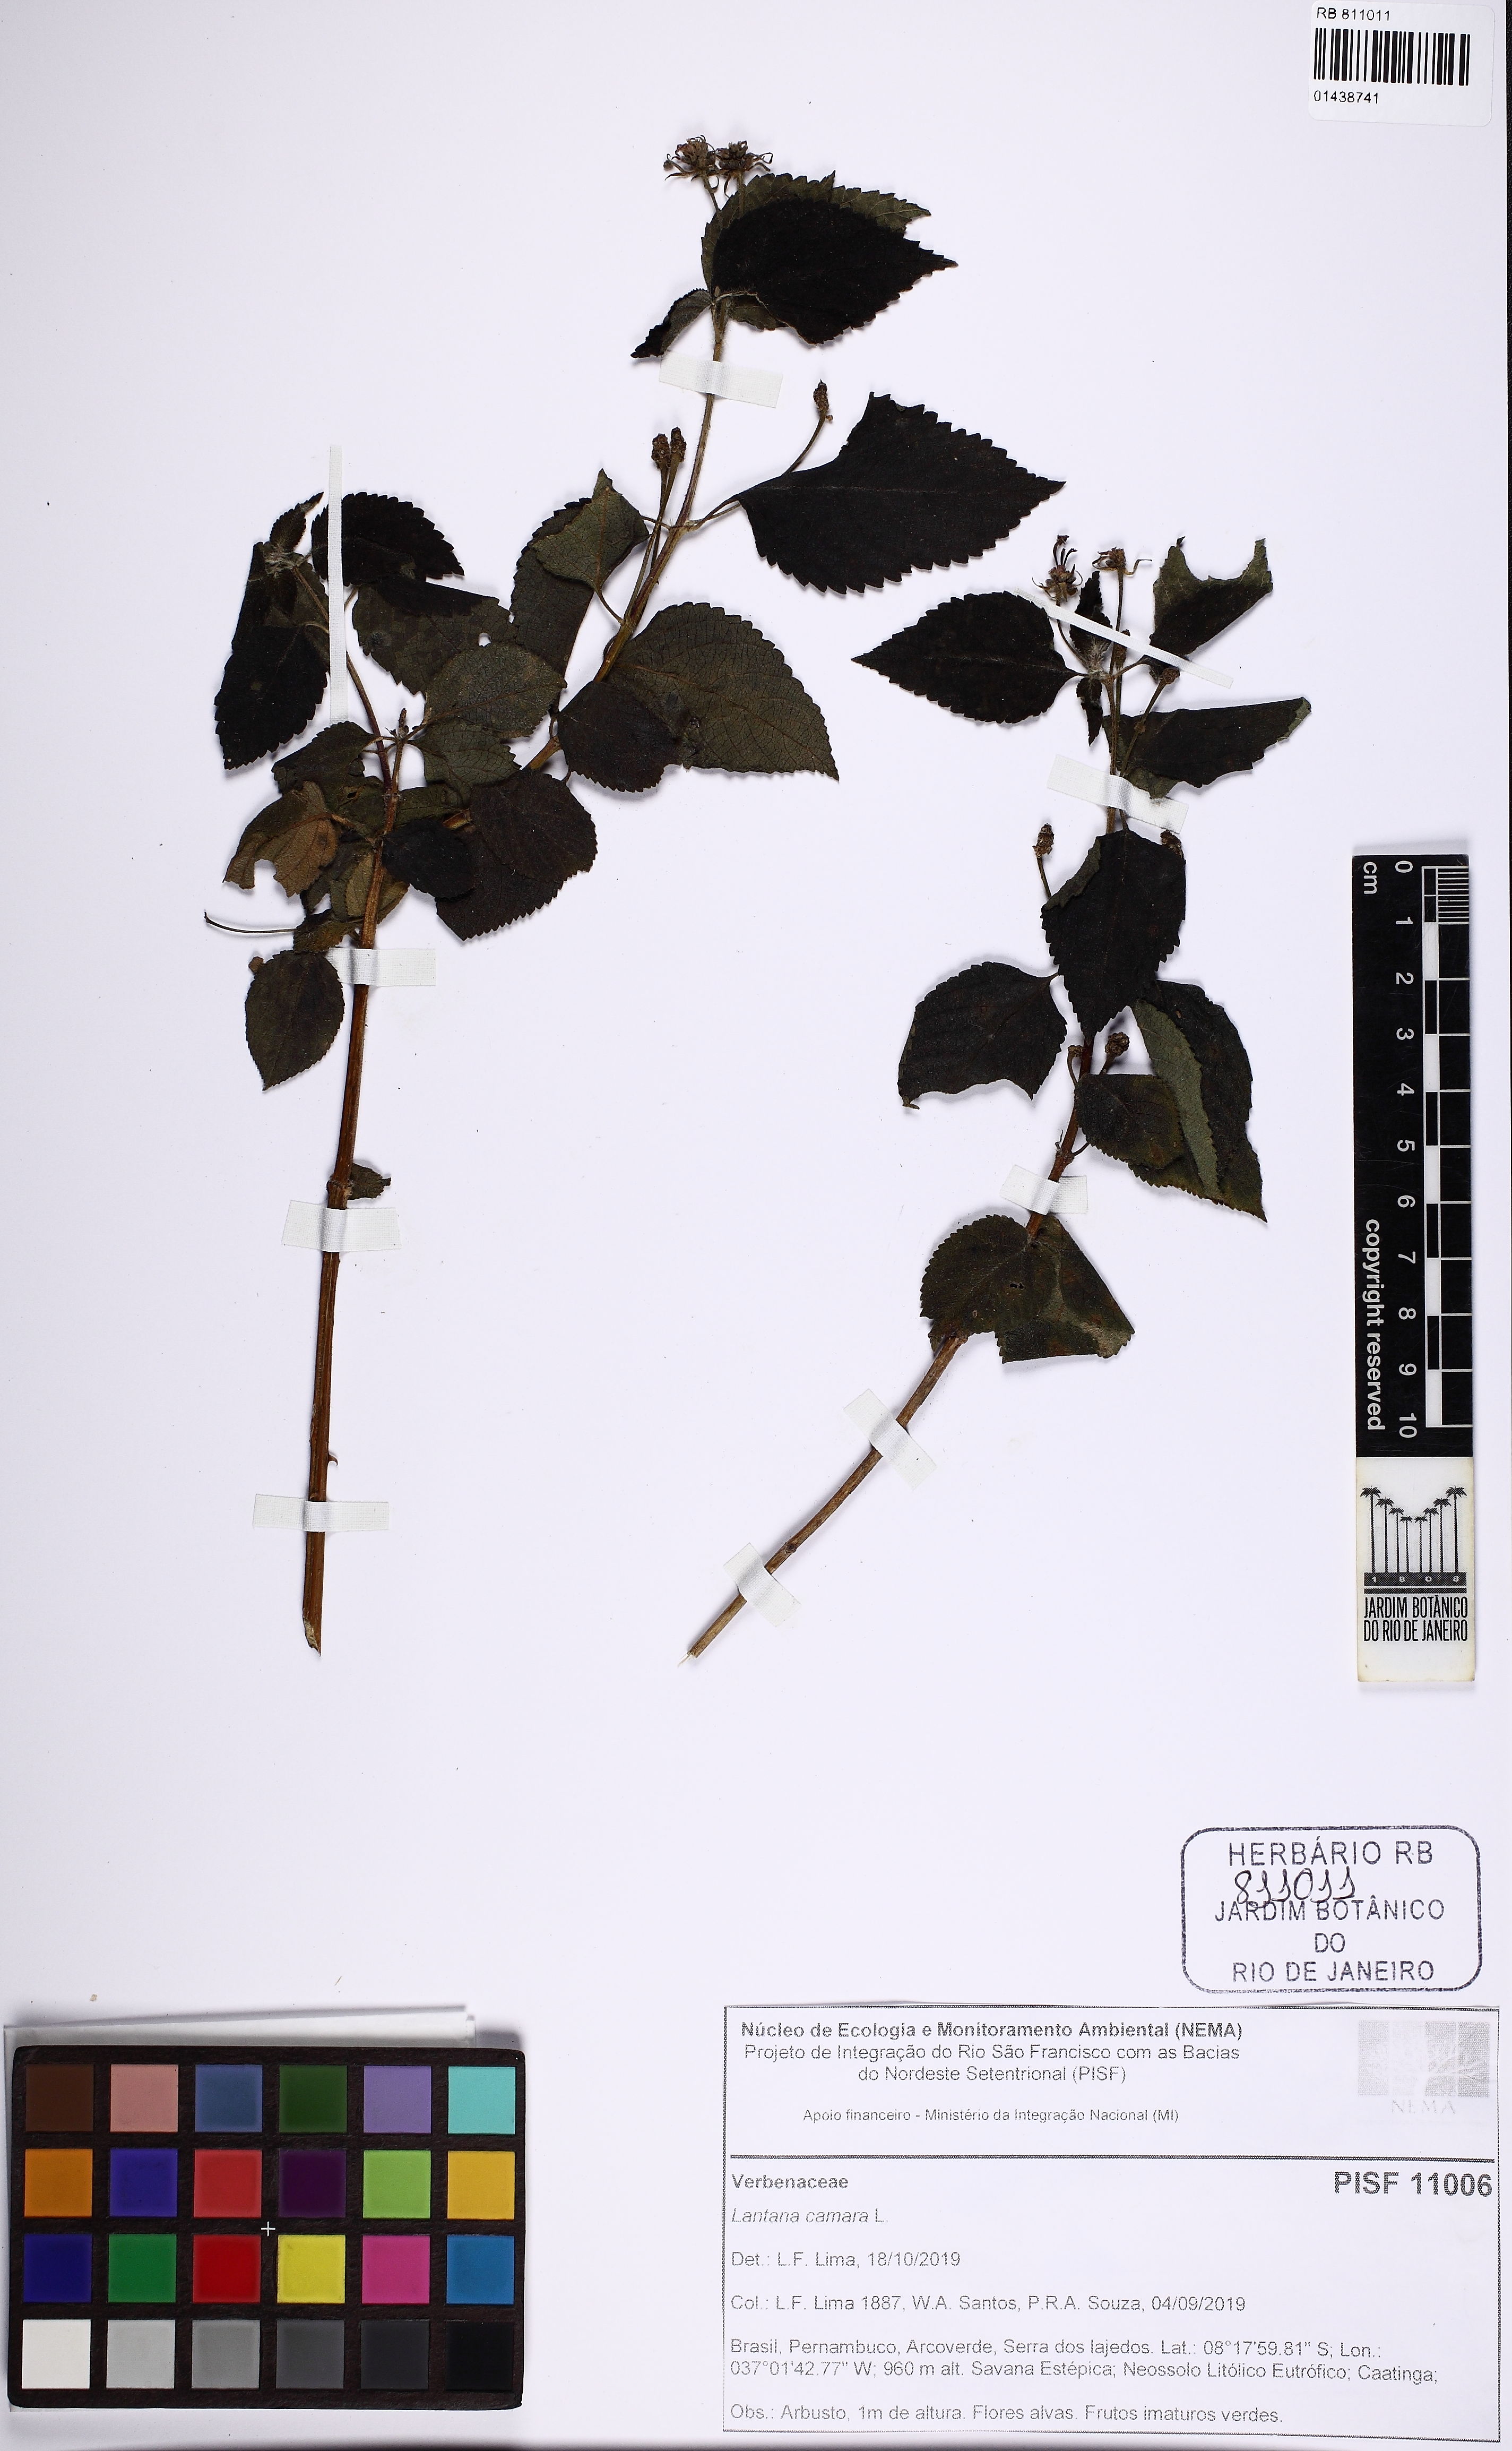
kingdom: Plantae
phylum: Tracheophyta
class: Magnoliopsida
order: Lamiales
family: Verbenaceae
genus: Lantana
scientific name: Lantana camara
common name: Lantana
